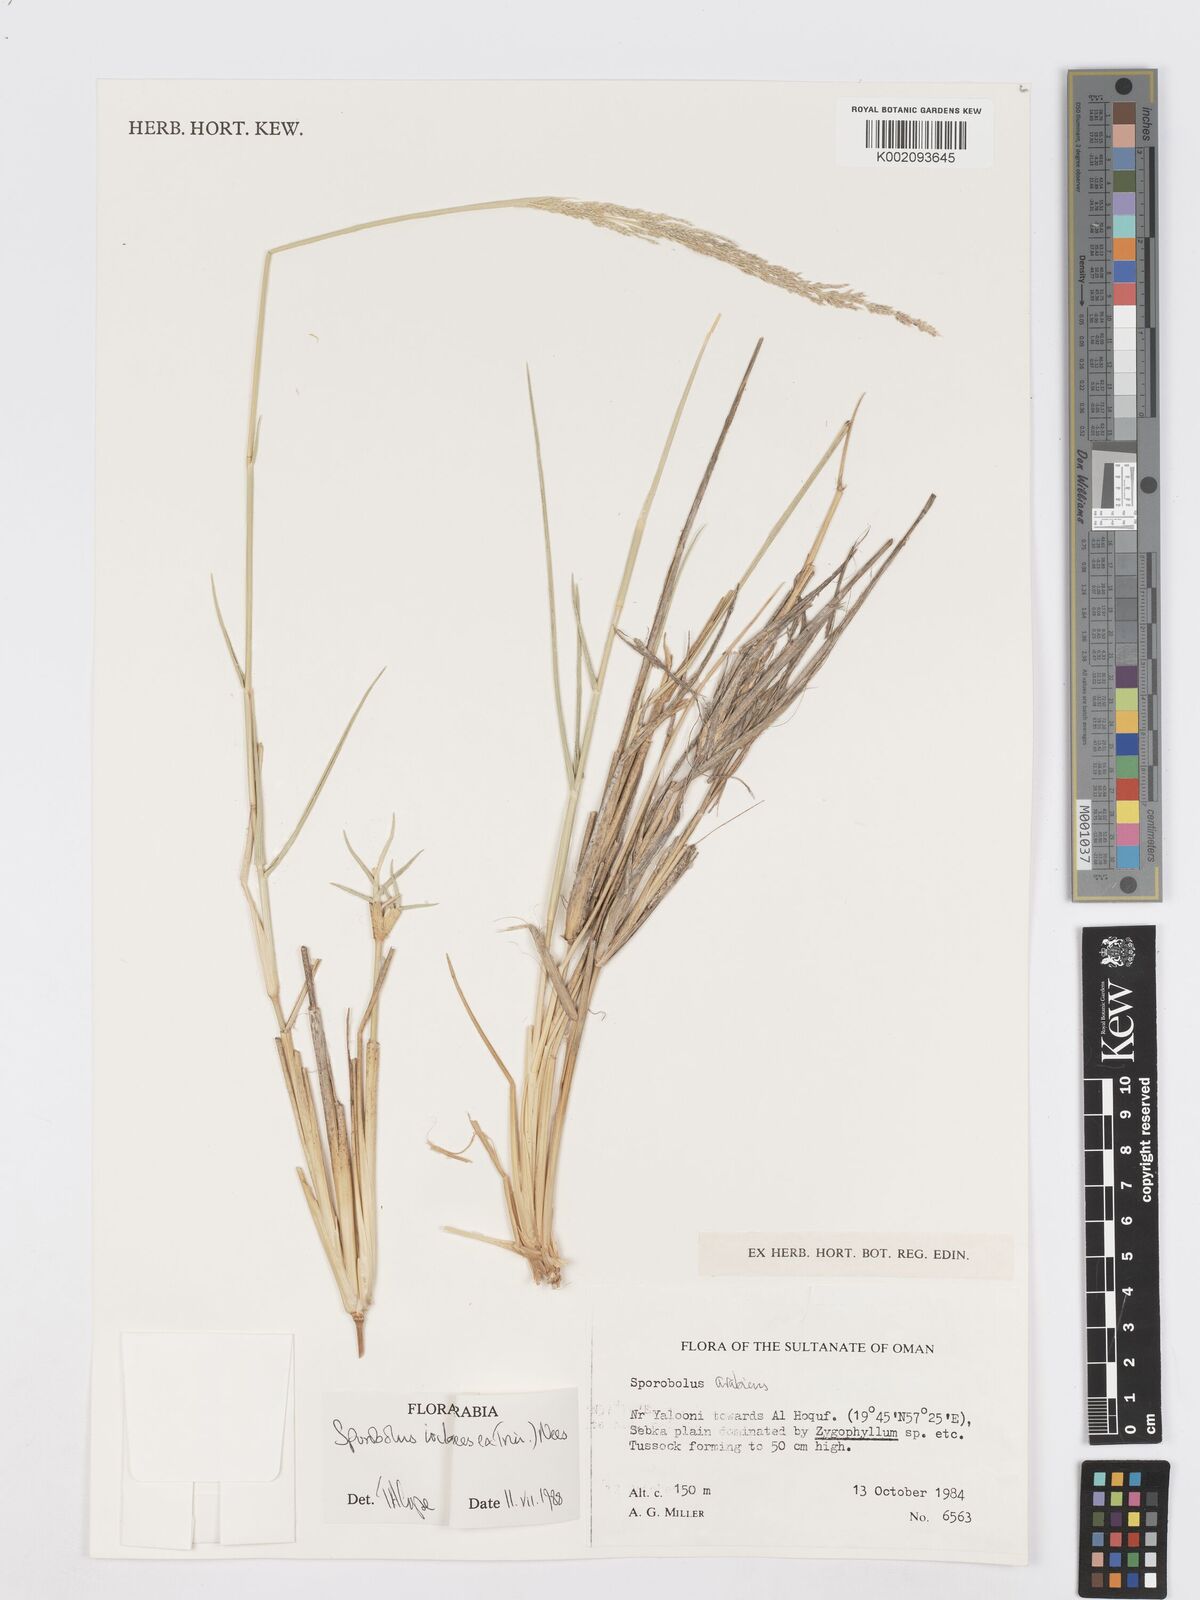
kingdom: Plantae
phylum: Tracheophyta
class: Liliopsida
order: Poales
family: Poaceae
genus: Sporobolus
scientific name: Sporobolus ioclados
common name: Pan dropseed
